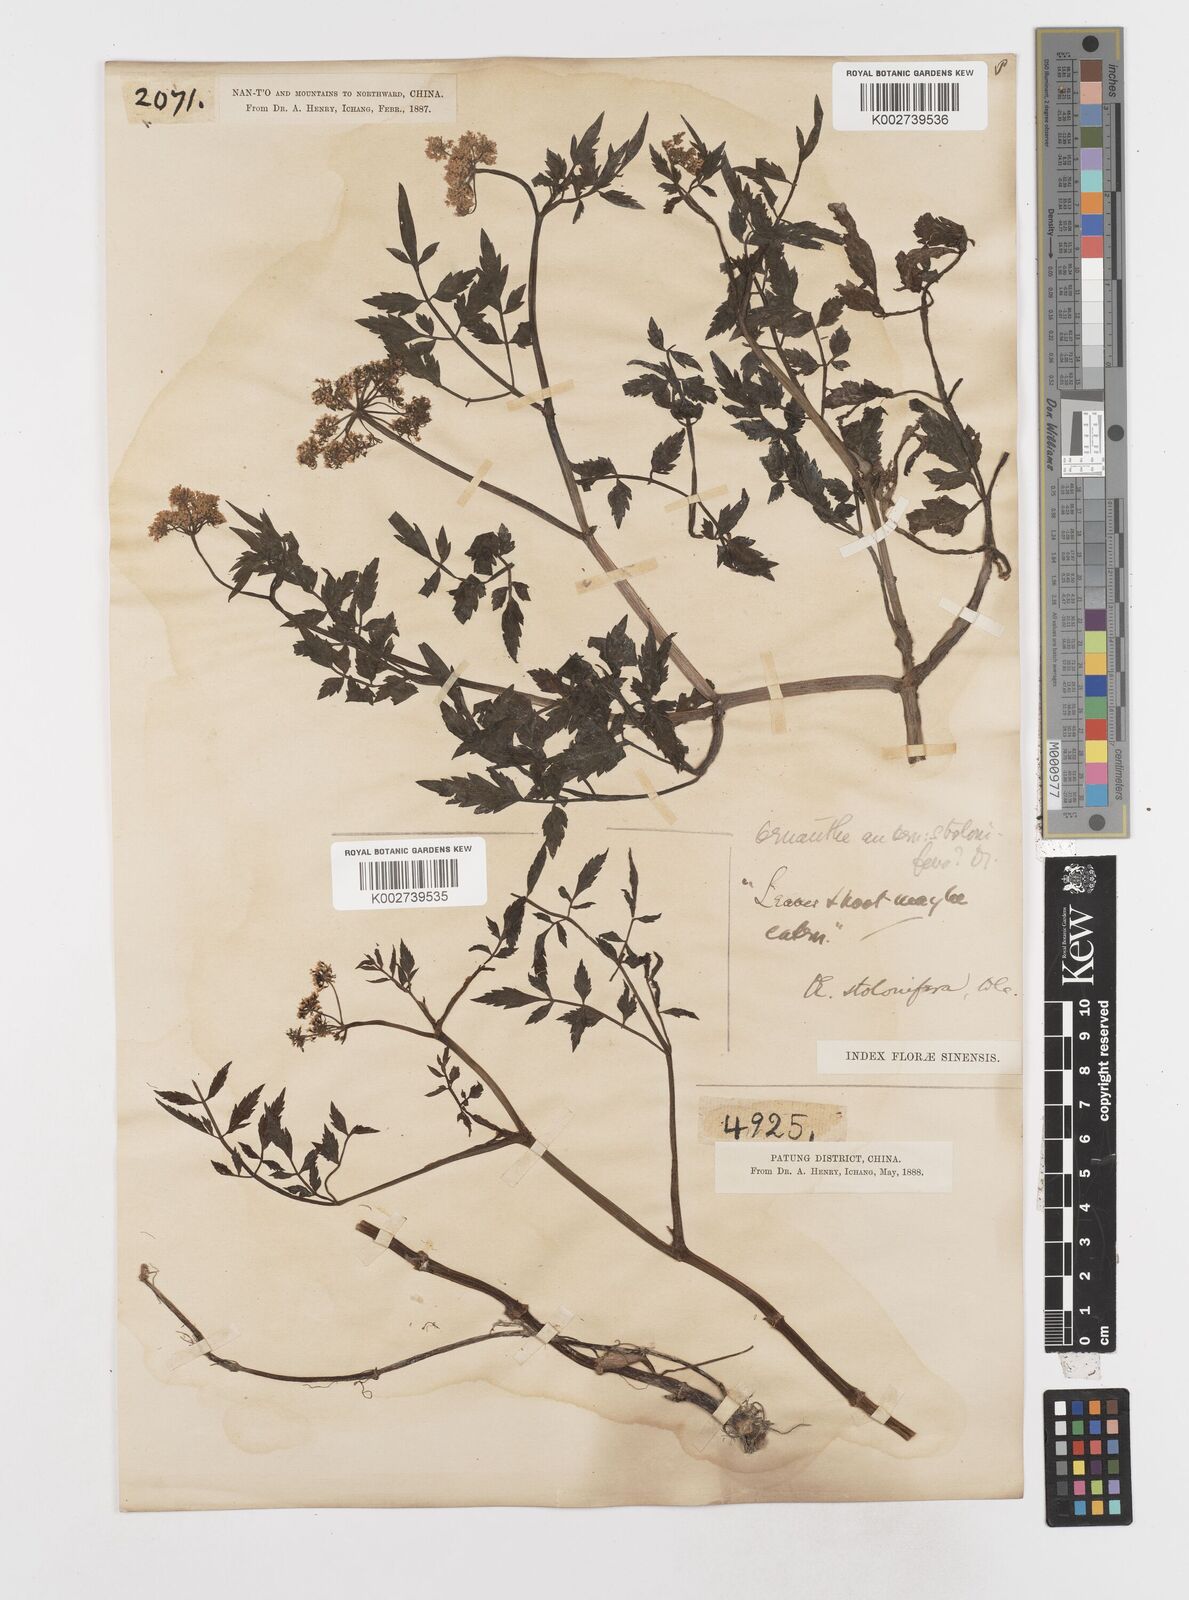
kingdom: Plantae
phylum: Tracheophyta
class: Magnoliopsida
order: Apiales
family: Apiaceae
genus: Oenanthe
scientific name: Oenanthe javanica
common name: Java water-dropwort
